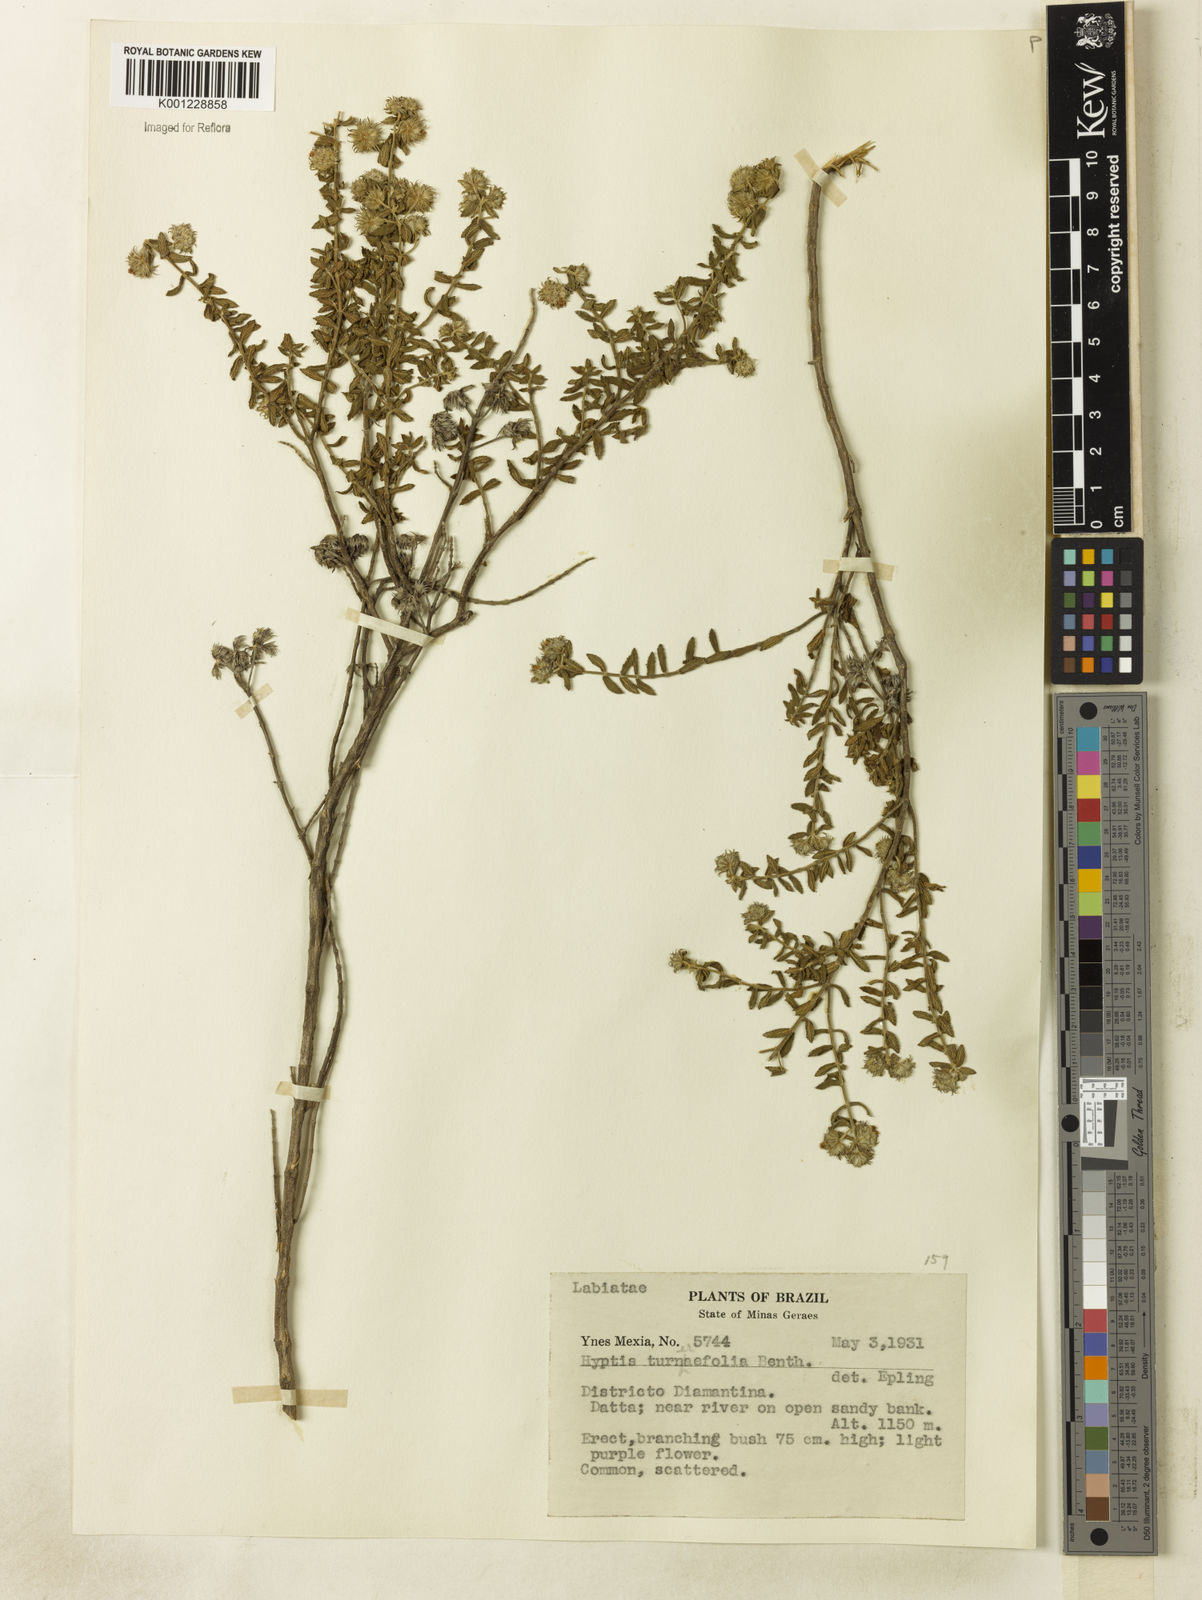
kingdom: Plantae
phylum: Tracheophyta
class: Magnoliopsida
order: Lamiales
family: Lamiaceae
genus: Hyptis
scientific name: Hyptis turnerifolia
